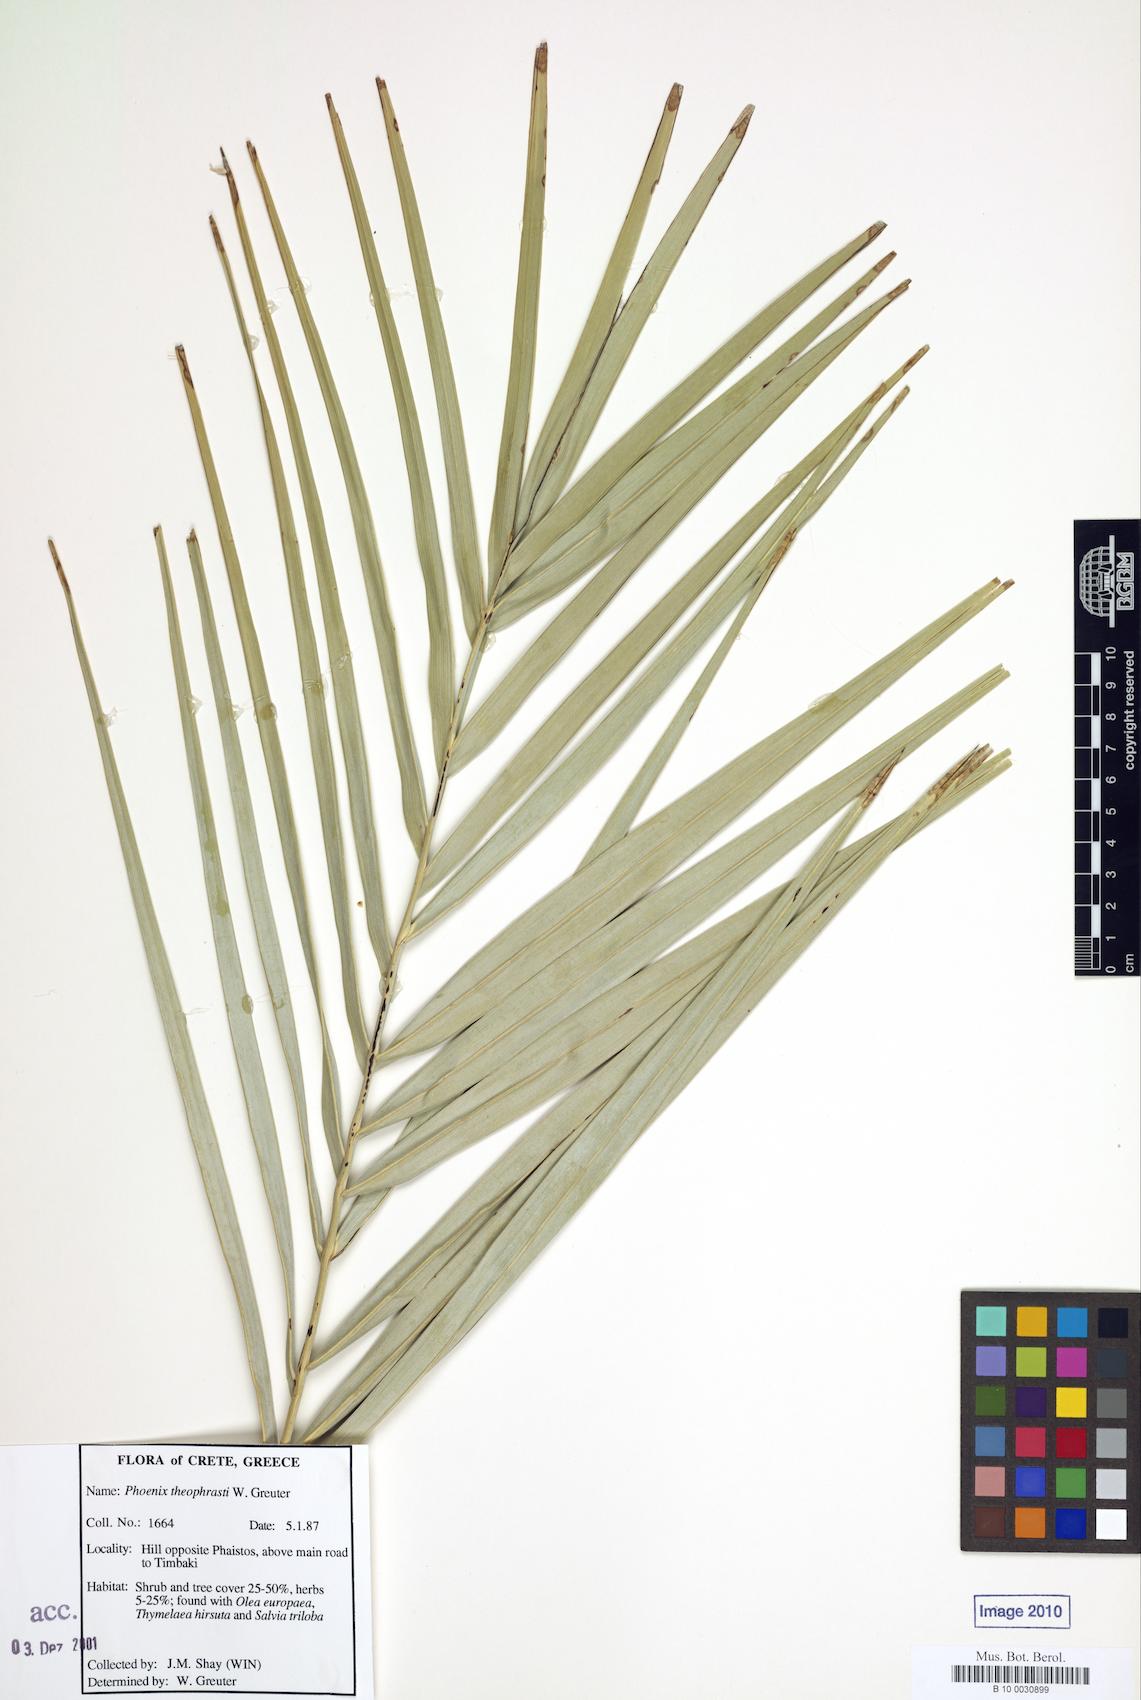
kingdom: Plantae
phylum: Tracheophyta
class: Liliopsida
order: Arecales
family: Arecaceae
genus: Phoenix
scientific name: Phoenix theophrasti
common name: Cretan date palm
